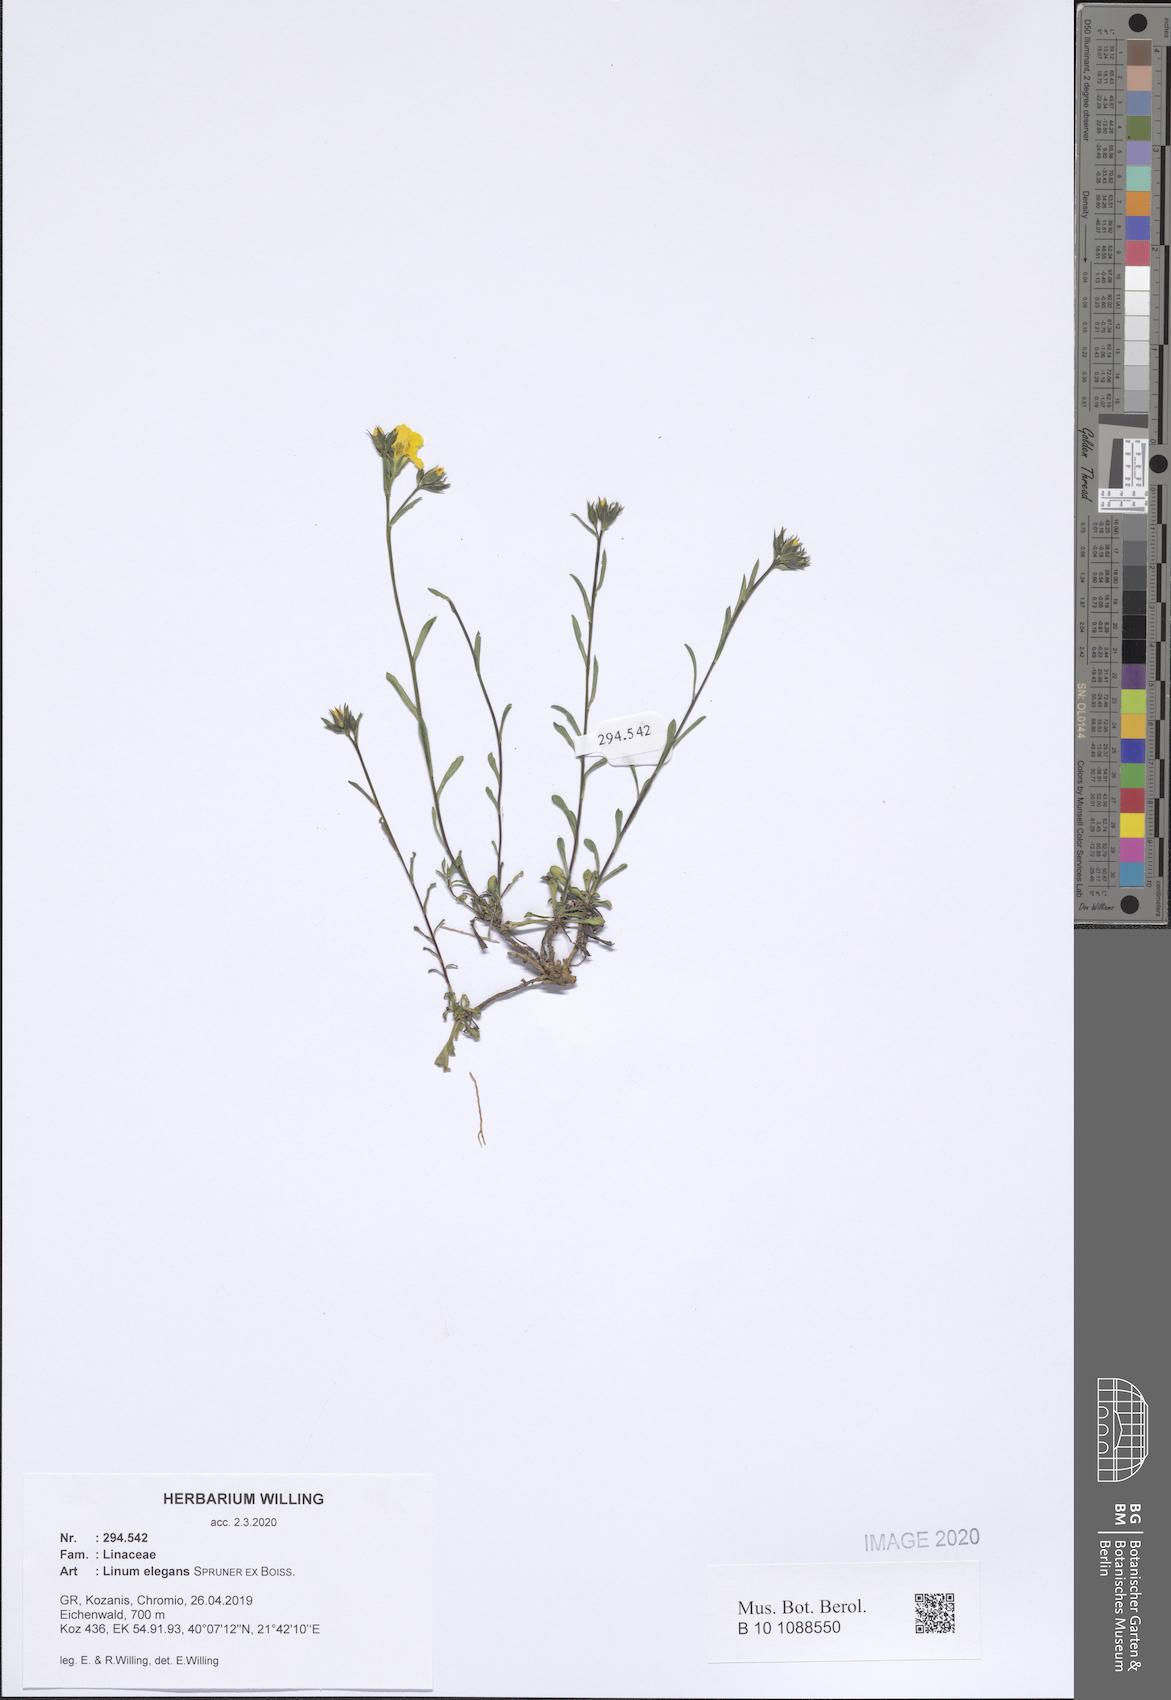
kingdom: Plantae
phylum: Tracheophyta
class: Magnoliopsida
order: Malpighiales
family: Linaceae
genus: Linum
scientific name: Linum elegans
